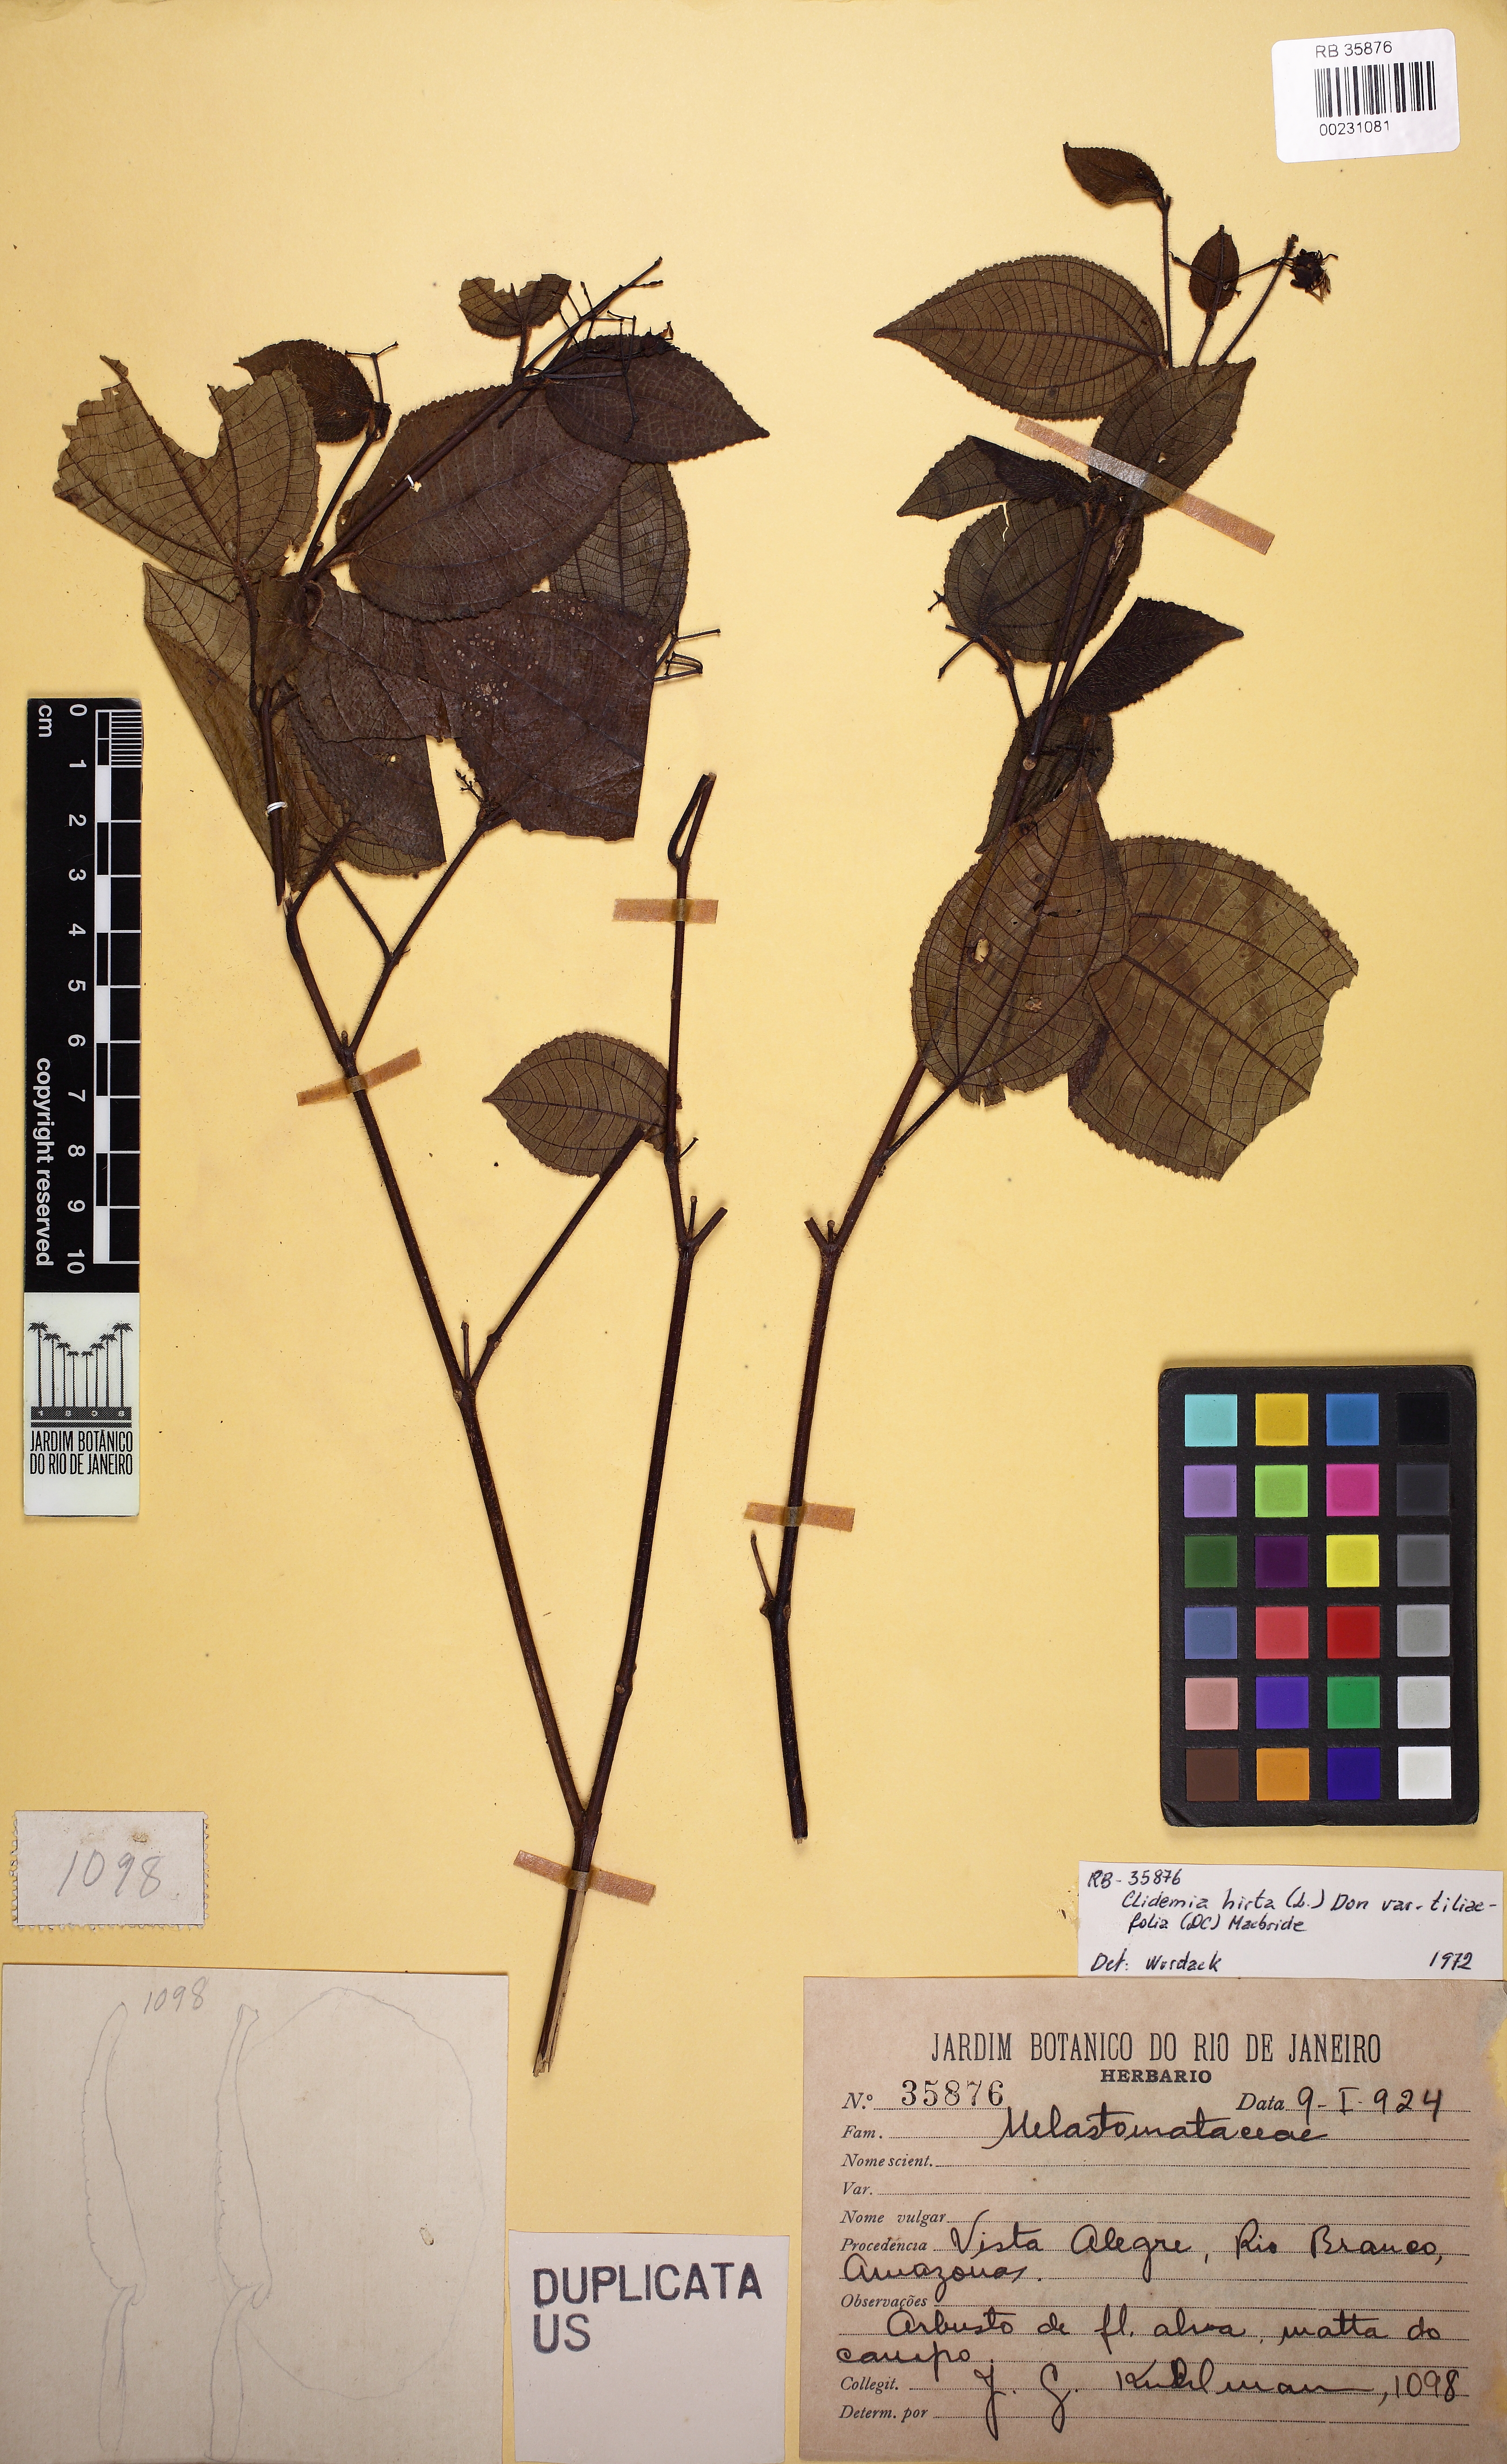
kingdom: Plantae
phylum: Tracheophyta
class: Magnoliopsida
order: Myrtales
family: Melastomataceae
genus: Miconia
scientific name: Miconia crenata
